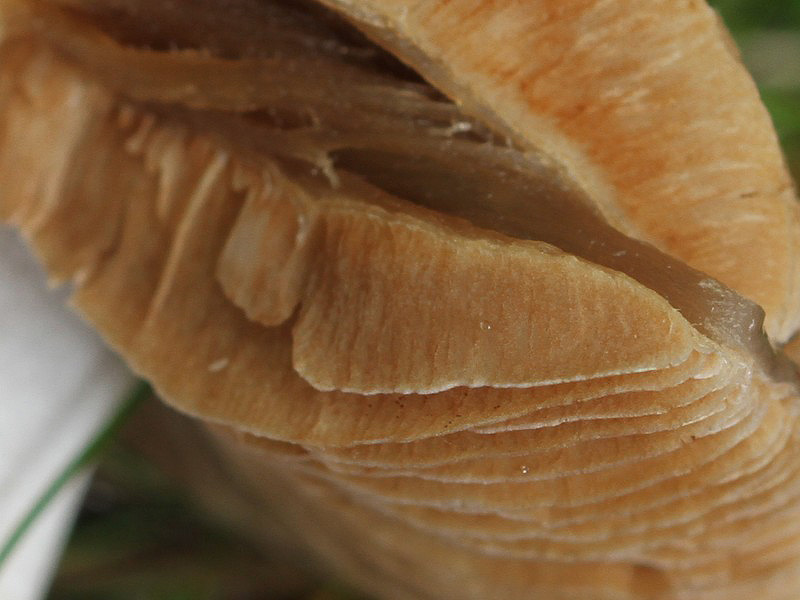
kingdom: Fungi
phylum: Basidiomycota
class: Agaricomycetes
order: Agaricales
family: Cortinariaceae
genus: Cortinarius
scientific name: Cortinarius elatior
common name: høj slørhat
